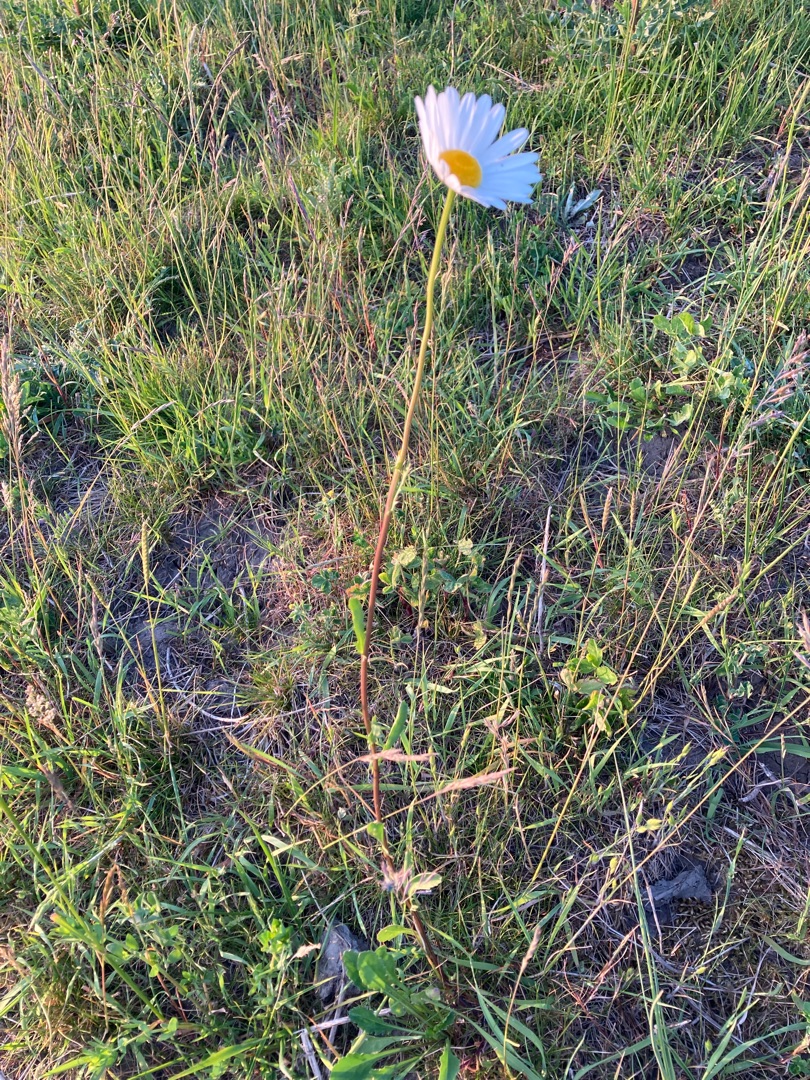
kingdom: Plantae
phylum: Tracheophyta
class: Magnoliopsida
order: Asterales
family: Asteraceae
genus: Leucanthemum
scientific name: Leucanthemum vulgare
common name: Hvid okseøje
